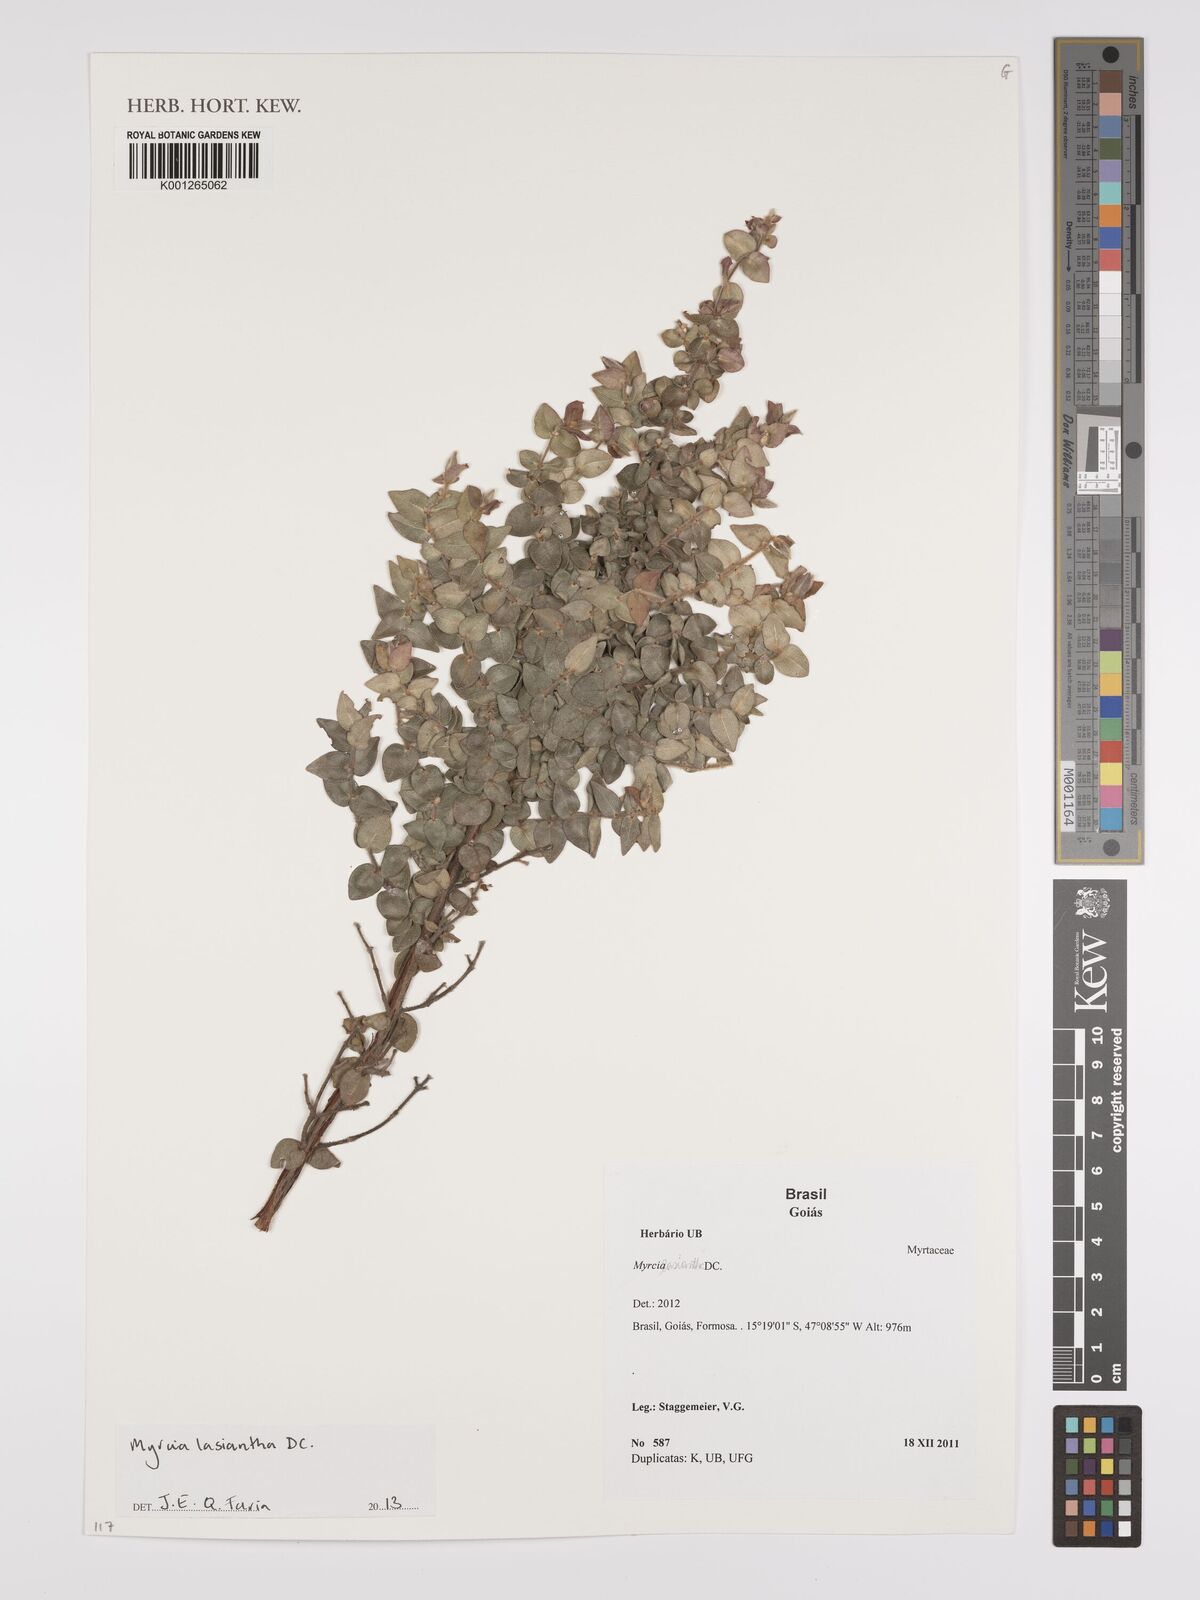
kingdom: Plantae
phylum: Tracheophyta
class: Magnoliopsida
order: Myrtales
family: Myrtaceae
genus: Myrcia
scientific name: Myrcia lasiantha
